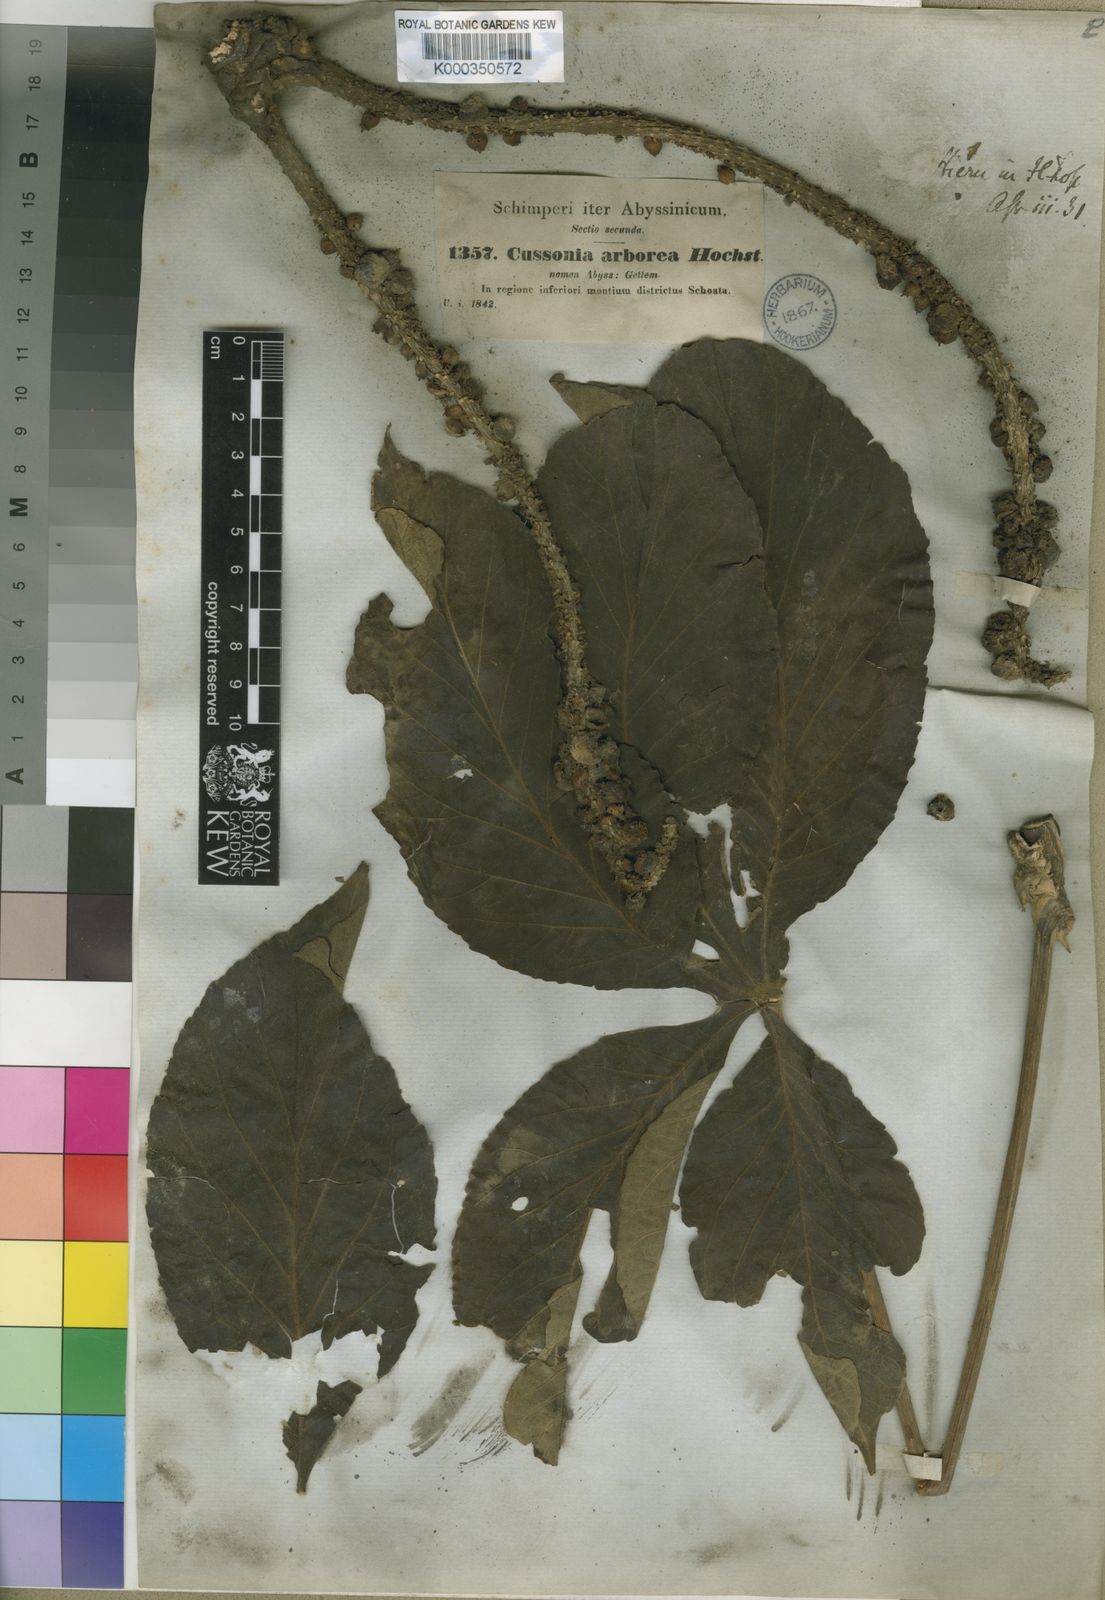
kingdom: Plantae
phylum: Tracheophyta
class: Magnoliopsida
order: Apiales
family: Araliaceae
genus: Cussonia
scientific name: Cussonia arborea
